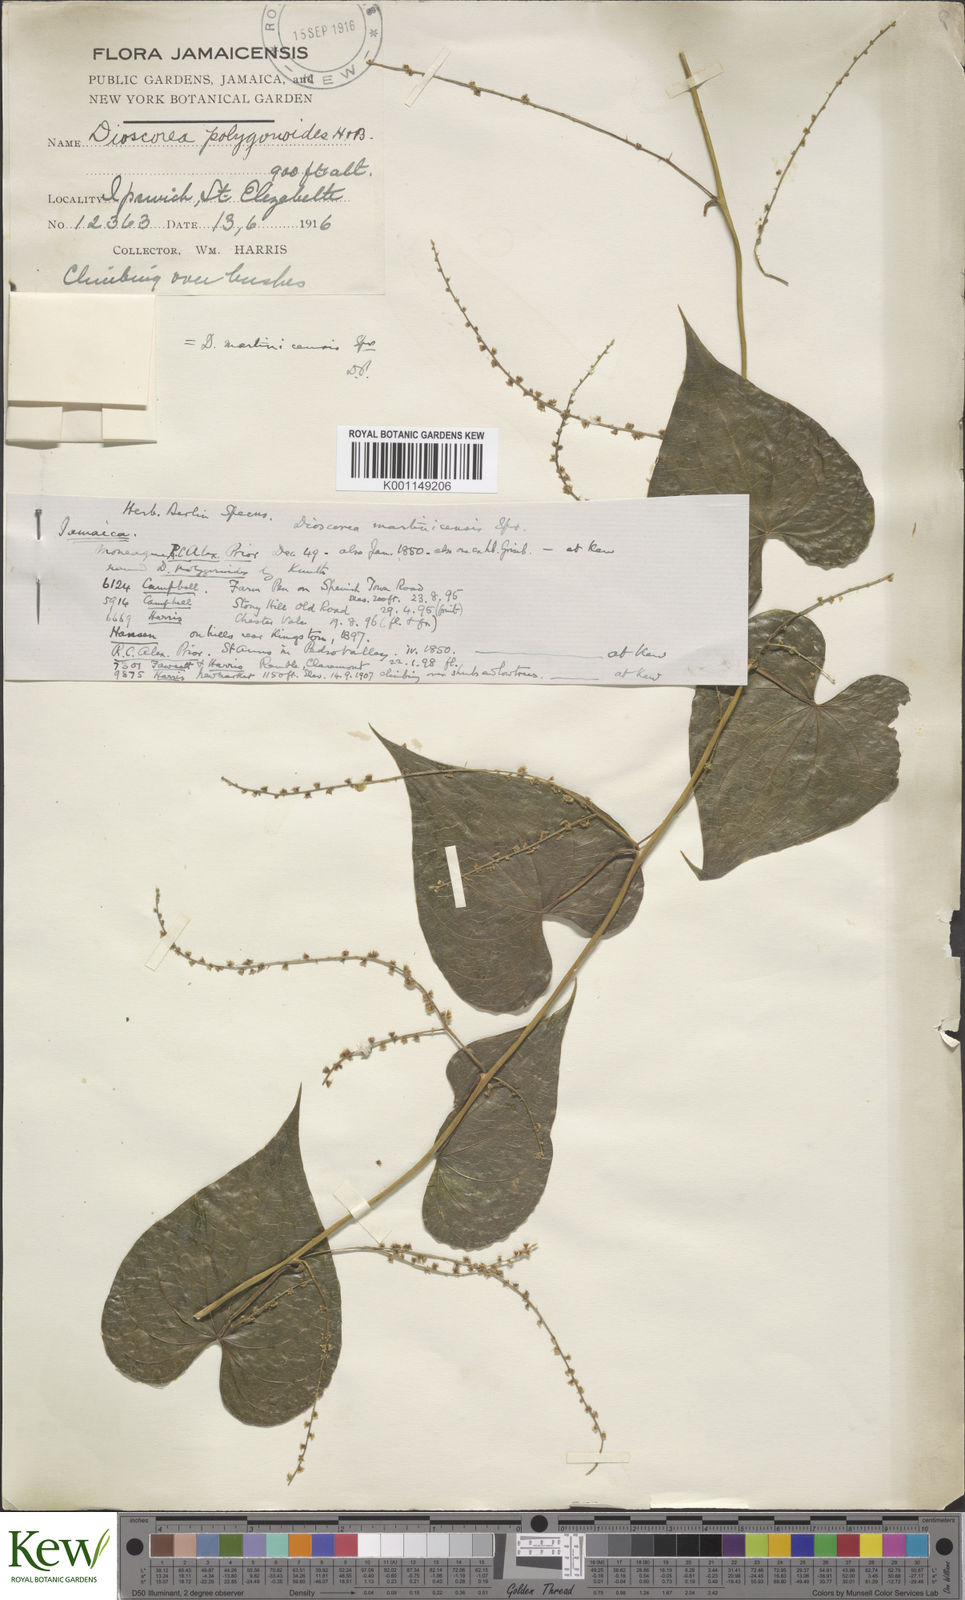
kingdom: Plantae
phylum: Tracheophyta
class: Liliopsida
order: Dioscoreales
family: Dioscoreaceae
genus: Dioscorea
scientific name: Dioscorea polygonoides
